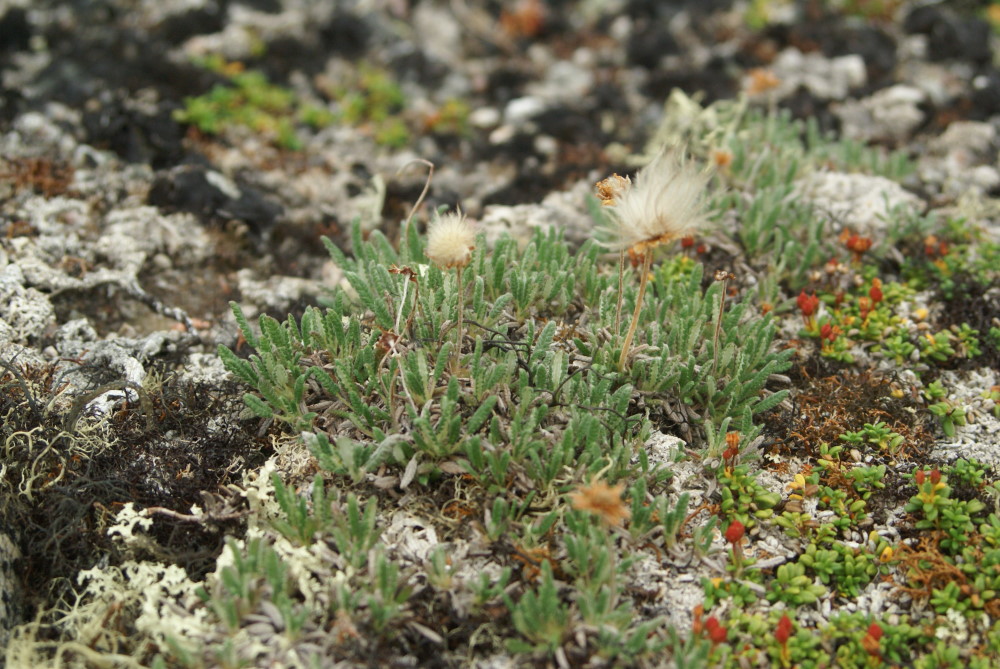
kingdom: Plantae
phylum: Tracheophyta
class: Magnoliopsida
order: Rosales
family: Rosaceae
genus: Dryas
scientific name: Dryas octopetala
